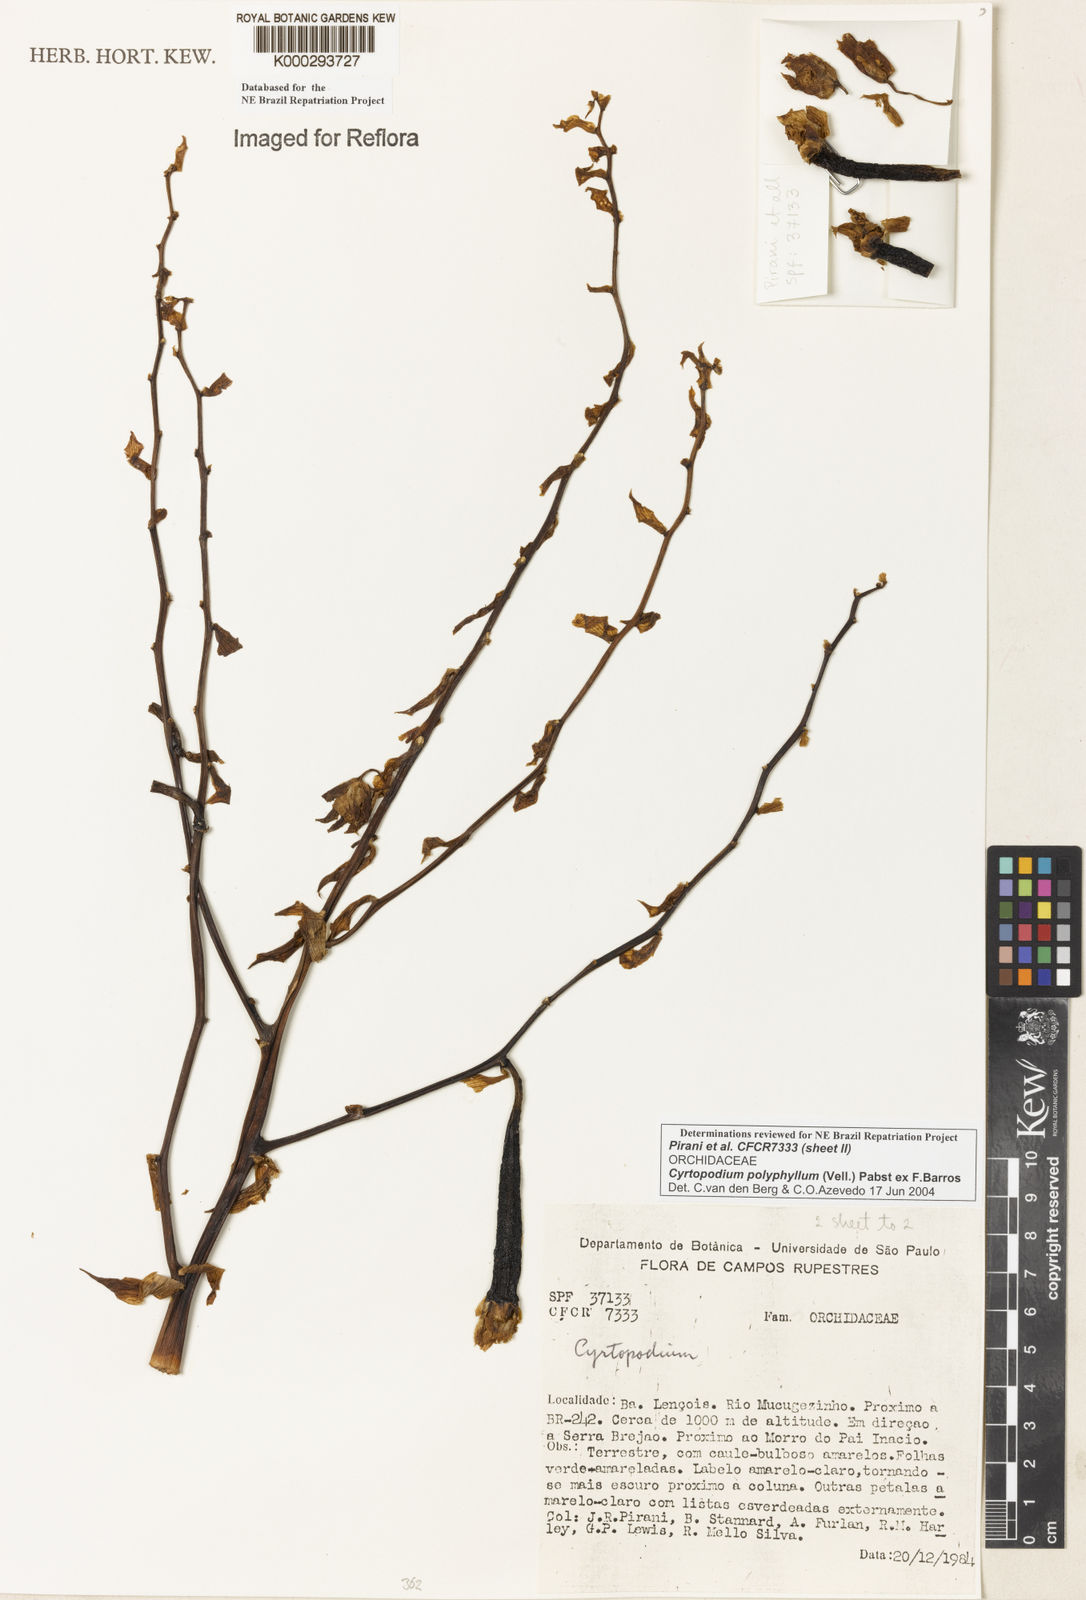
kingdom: Plantae
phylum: Tracheophyta
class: Liliopsida
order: Asparagales
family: Orchidaceae
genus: Cyrtopodium
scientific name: Cyrtopodium flavum
